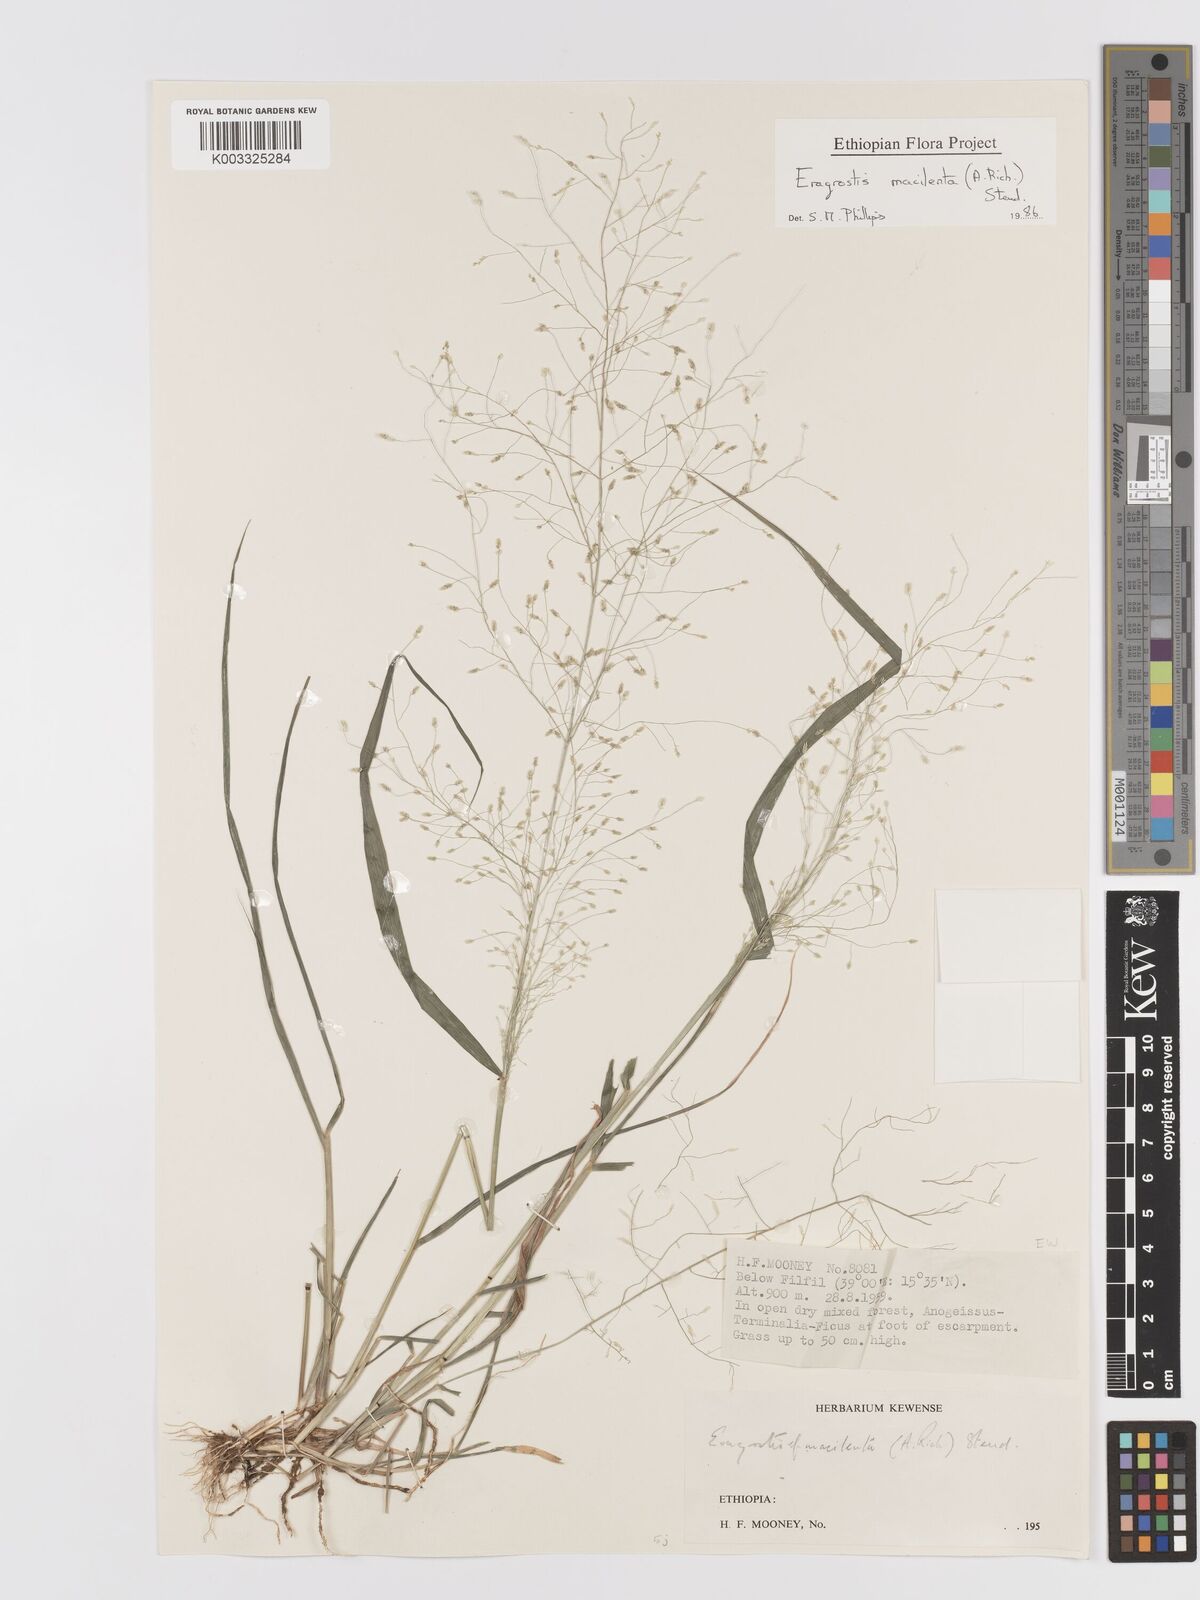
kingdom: Plantae
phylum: Tracheophyta
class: Liliopsida
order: Poales
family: Poaceae
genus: Eragrostis
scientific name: Eragrostis macilenta
